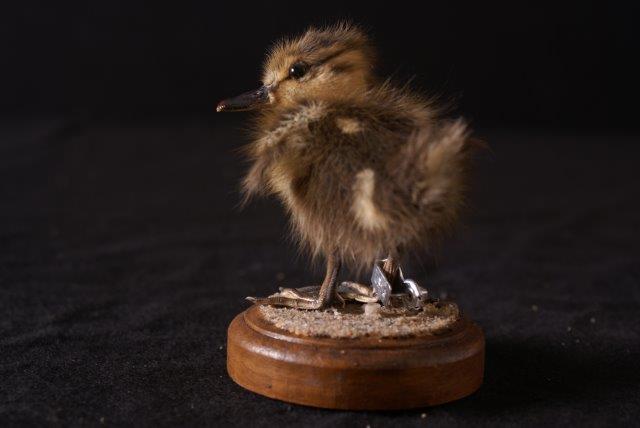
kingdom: Animalia
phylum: Chordata
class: Aves
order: Anseriformes
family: Anatidae
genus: Anas
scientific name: Anas platyrhynchos
